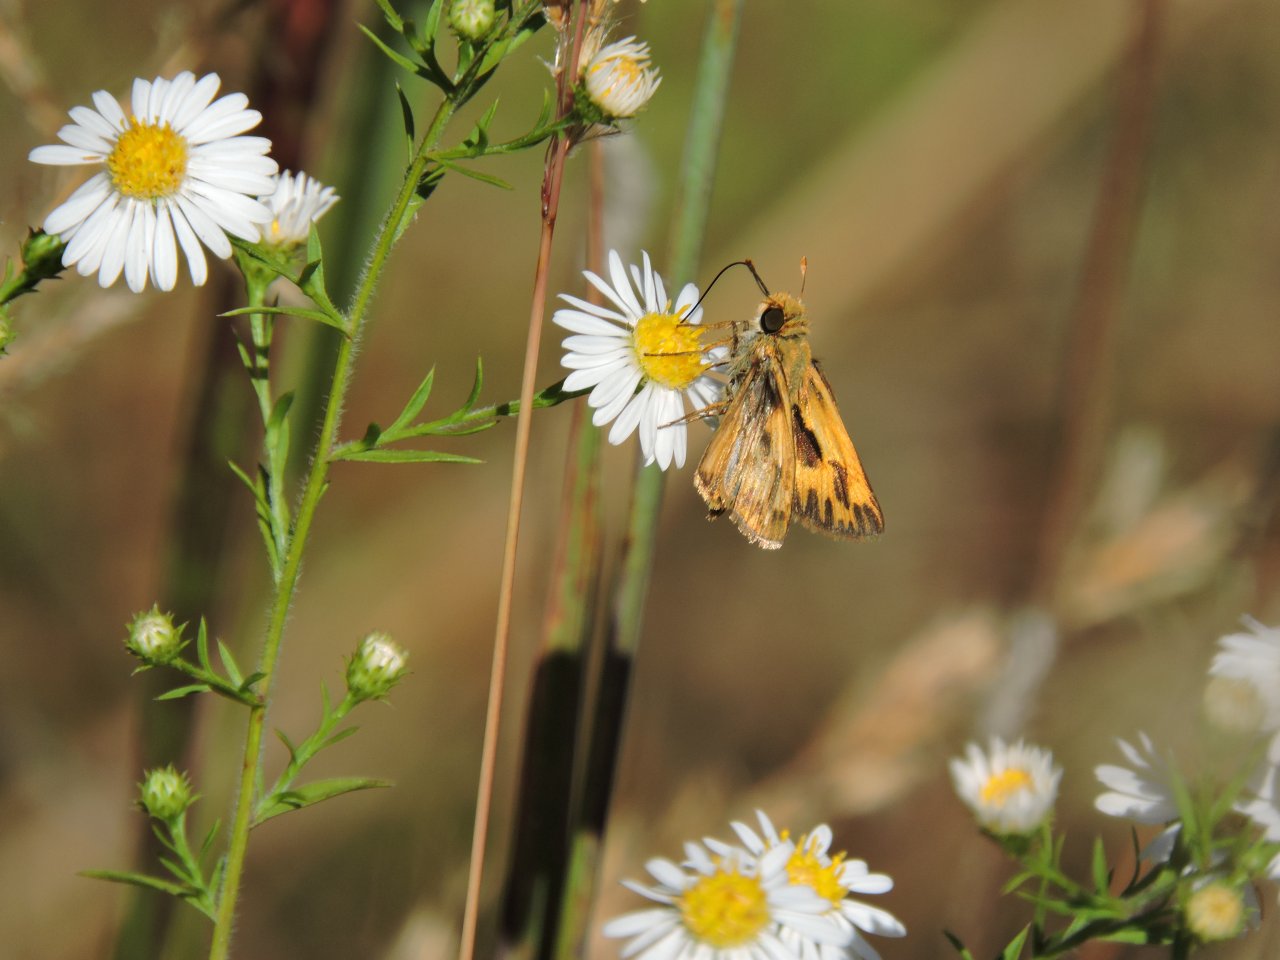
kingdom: Animalia
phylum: Arthropoda
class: Insecta
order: Lepidoptera
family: Hesperiidae
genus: Hylephila
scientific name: Hylephila phyleus
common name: Fiery Skipper
